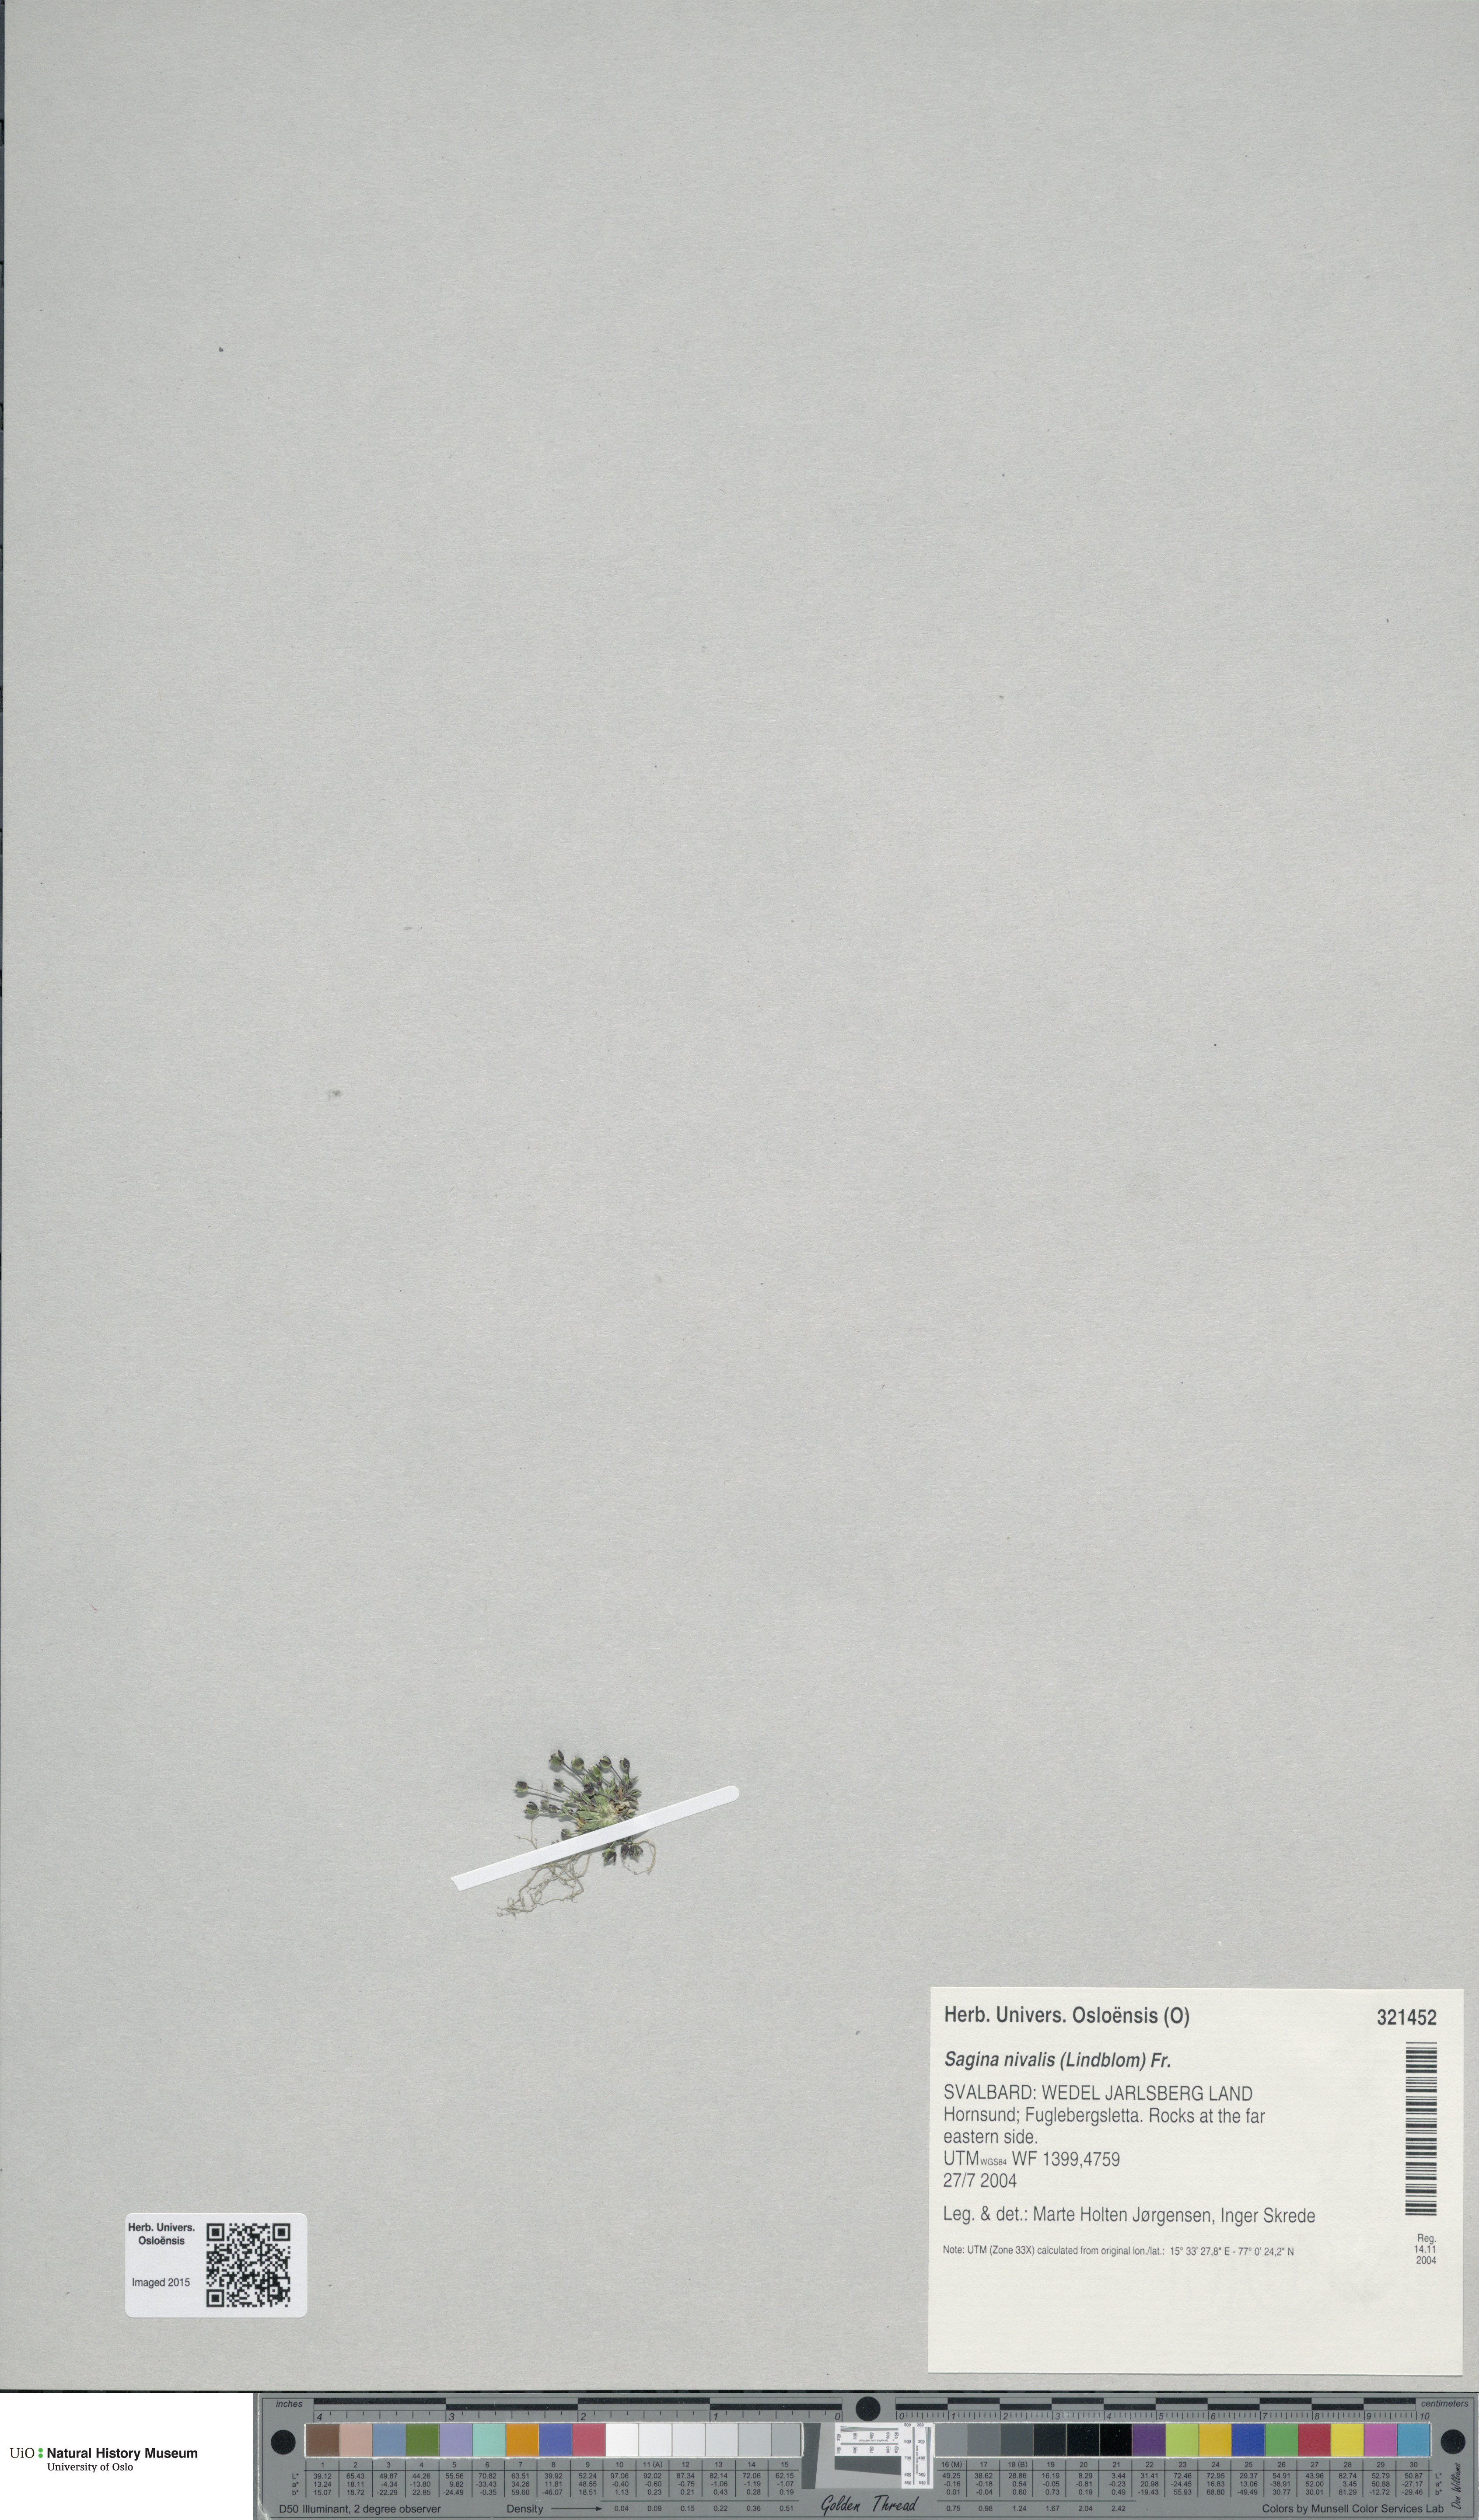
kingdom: Plantae
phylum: Tracheophyta
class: Magnoliopsida
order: Caryophyllales
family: Caryophyllaceae
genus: Sagina
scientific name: Sagina nivalis
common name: Snow pearlwort
